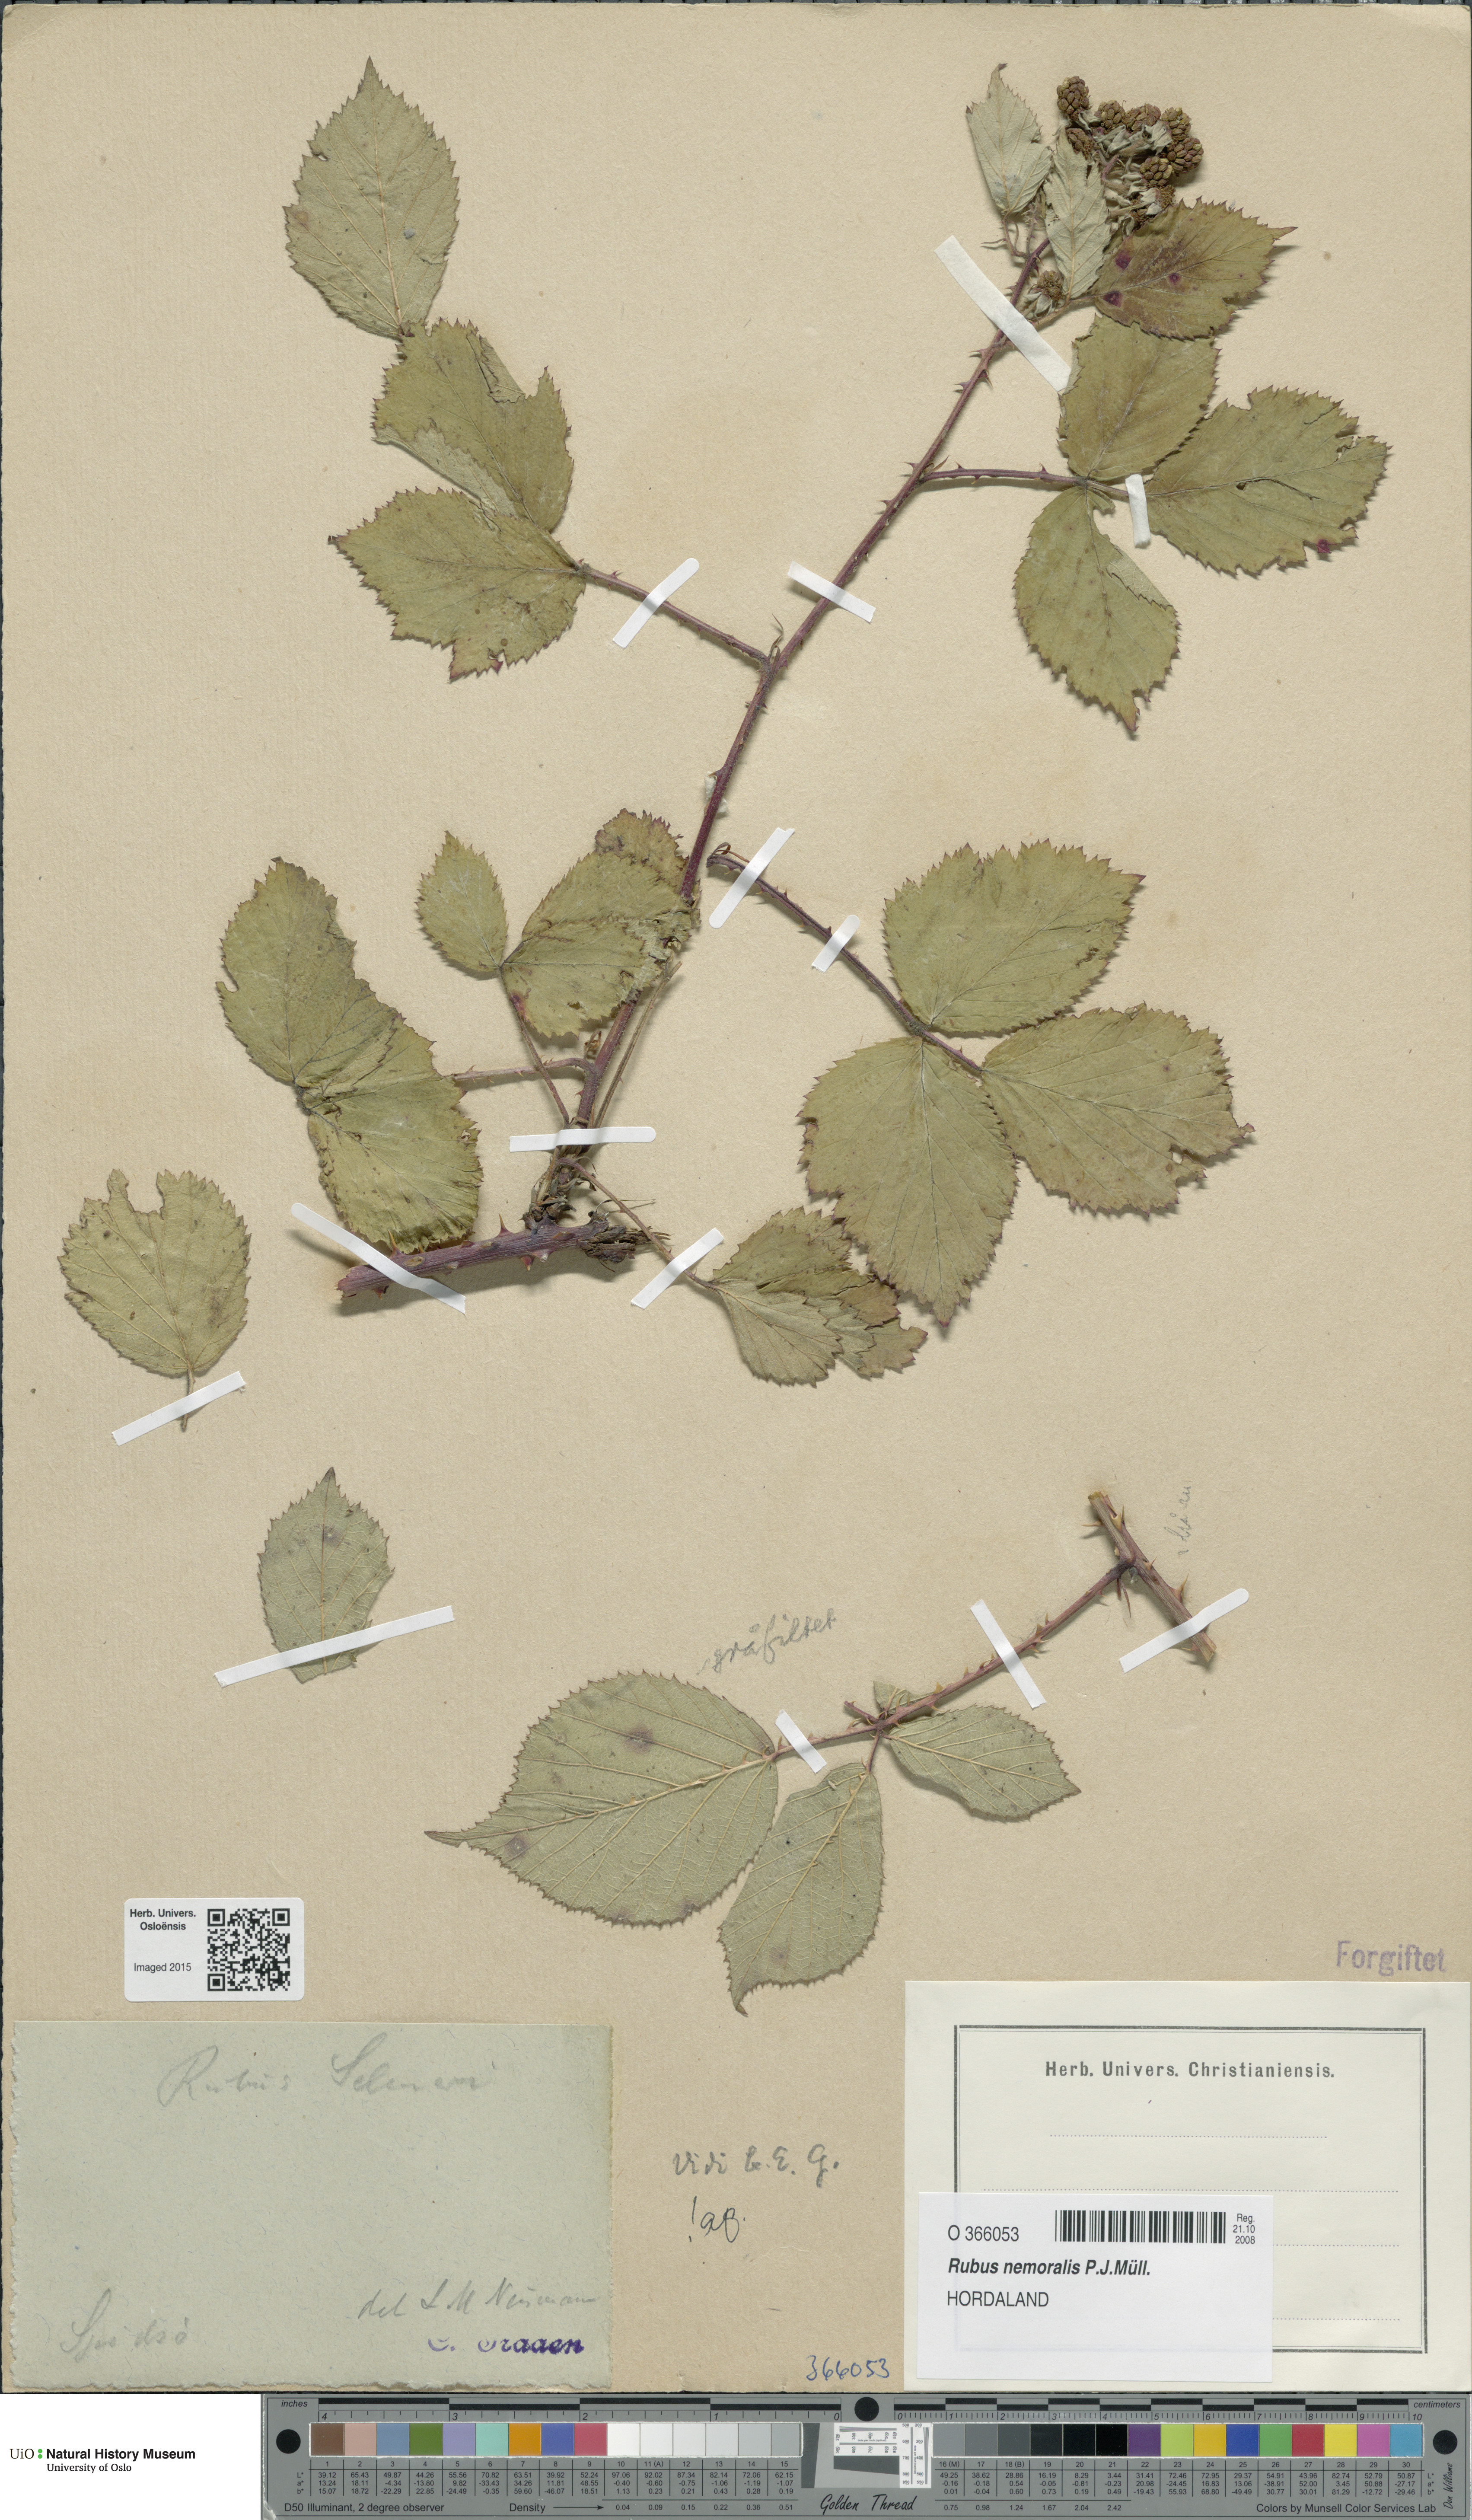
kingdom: Plantae
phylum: Tracheophyta
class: Magnoliopsida
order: Rosales
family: Rosaceae
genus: Rubus
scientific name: Rubus nemoralis
